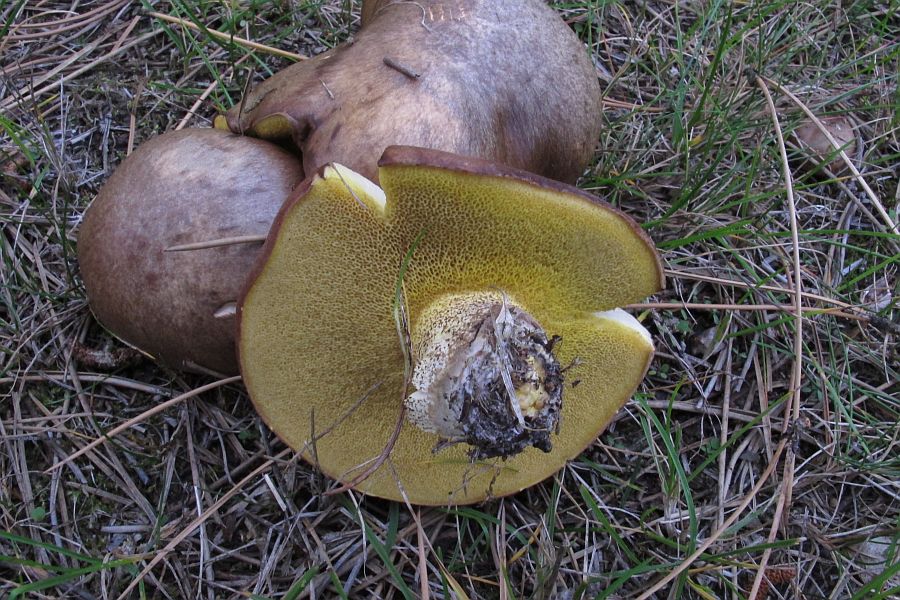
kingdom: Fungi
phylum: Basidiomycota
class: Agaricomycetes
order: Boletales
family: Suillaceae
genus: Suillus
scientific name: Suillus granulatus
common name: kornet slimrørhat
